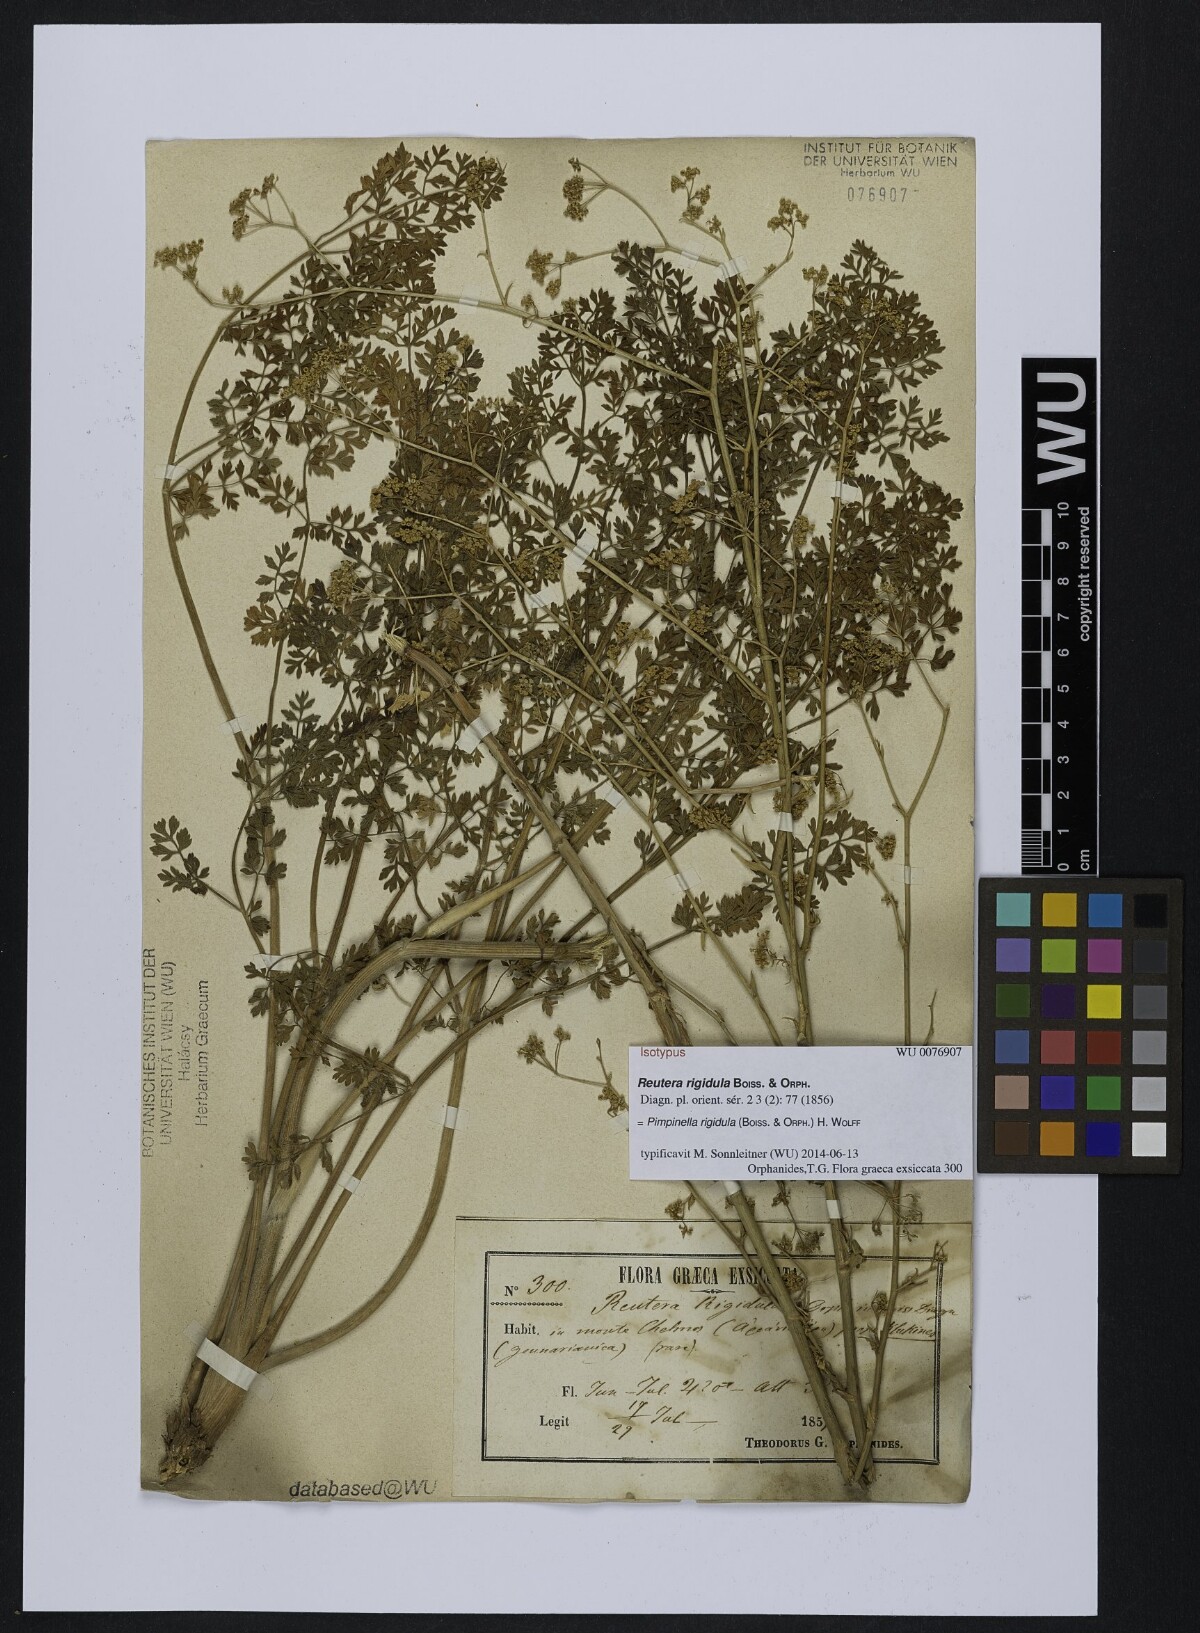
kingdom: Plantae
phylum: Tracheophyta
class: Magnoliopsida
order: Apiales
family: Apiaceae
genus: Pimpinella
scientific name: Pimpinella rigidula
